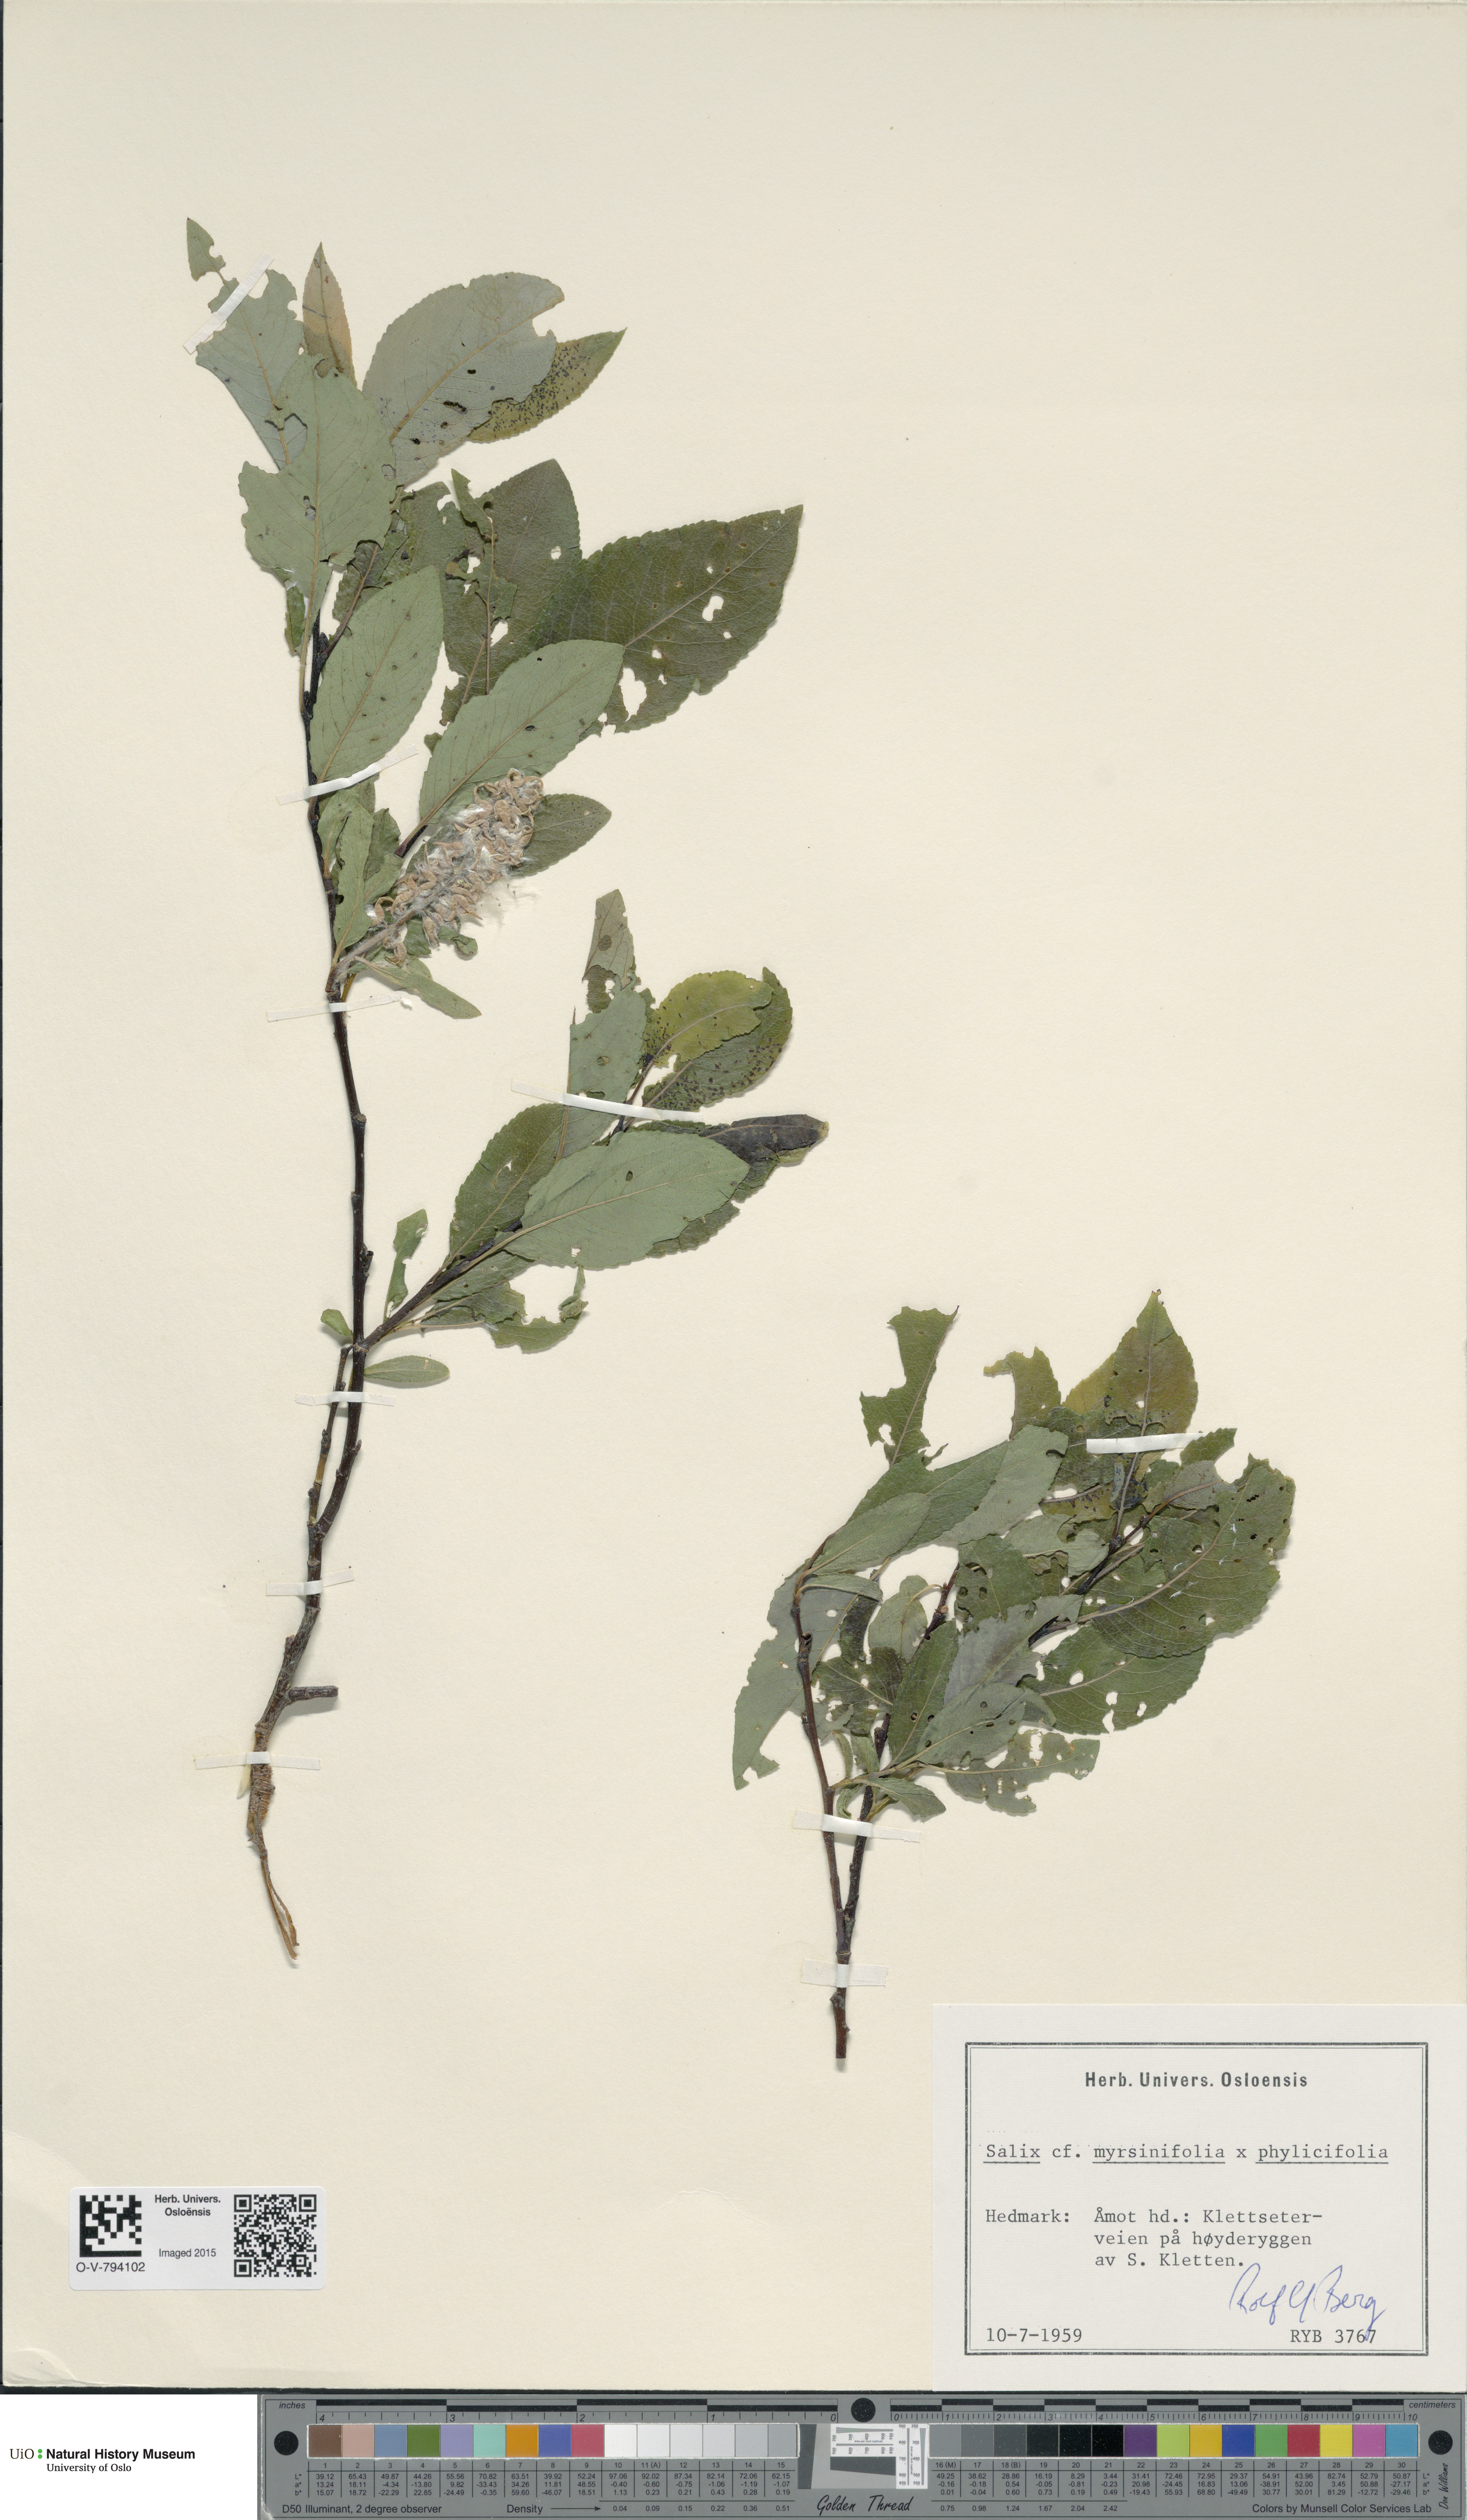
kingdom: Plantae
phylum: Tracheophyta
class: Magnoliopsida
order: Malpighiales
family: Salicaceae
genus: Salix
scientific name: Salix
